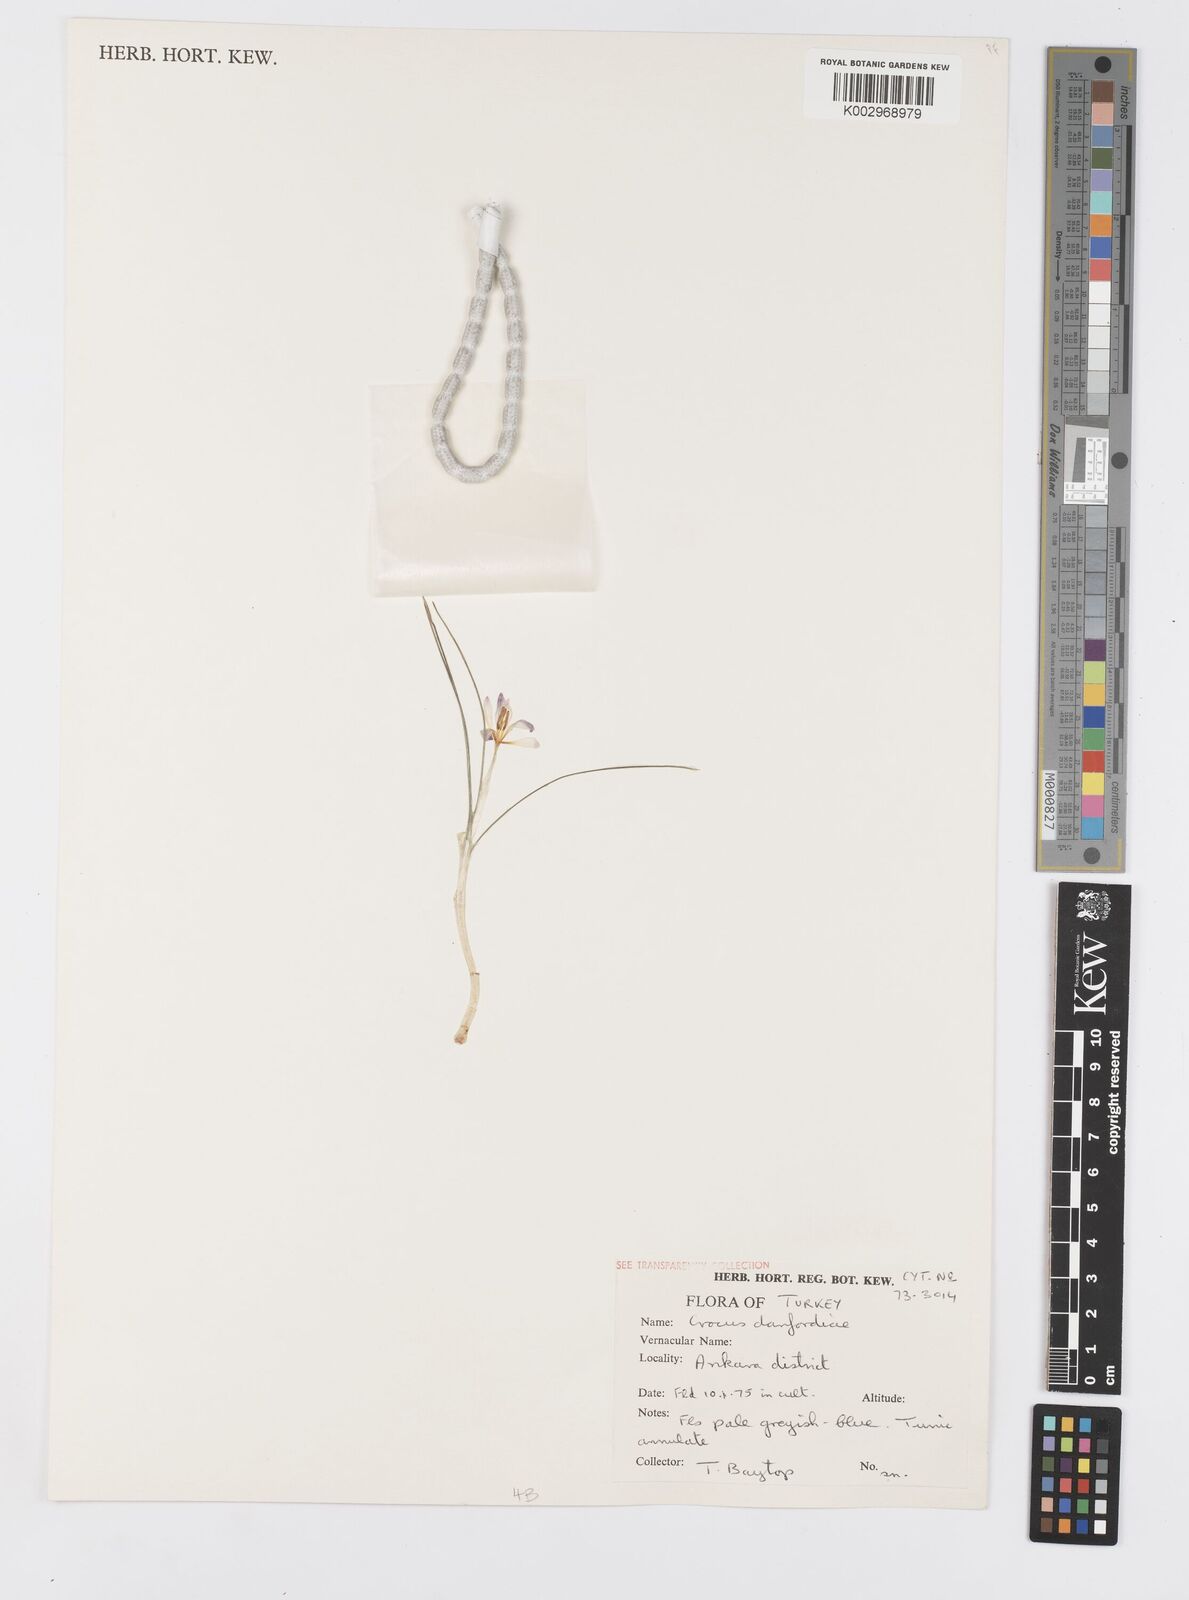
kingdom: Plantae
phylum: Tracheophyta
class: Liliopsida
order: Asparagales
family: Iridaceae
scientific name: Iridaceae
